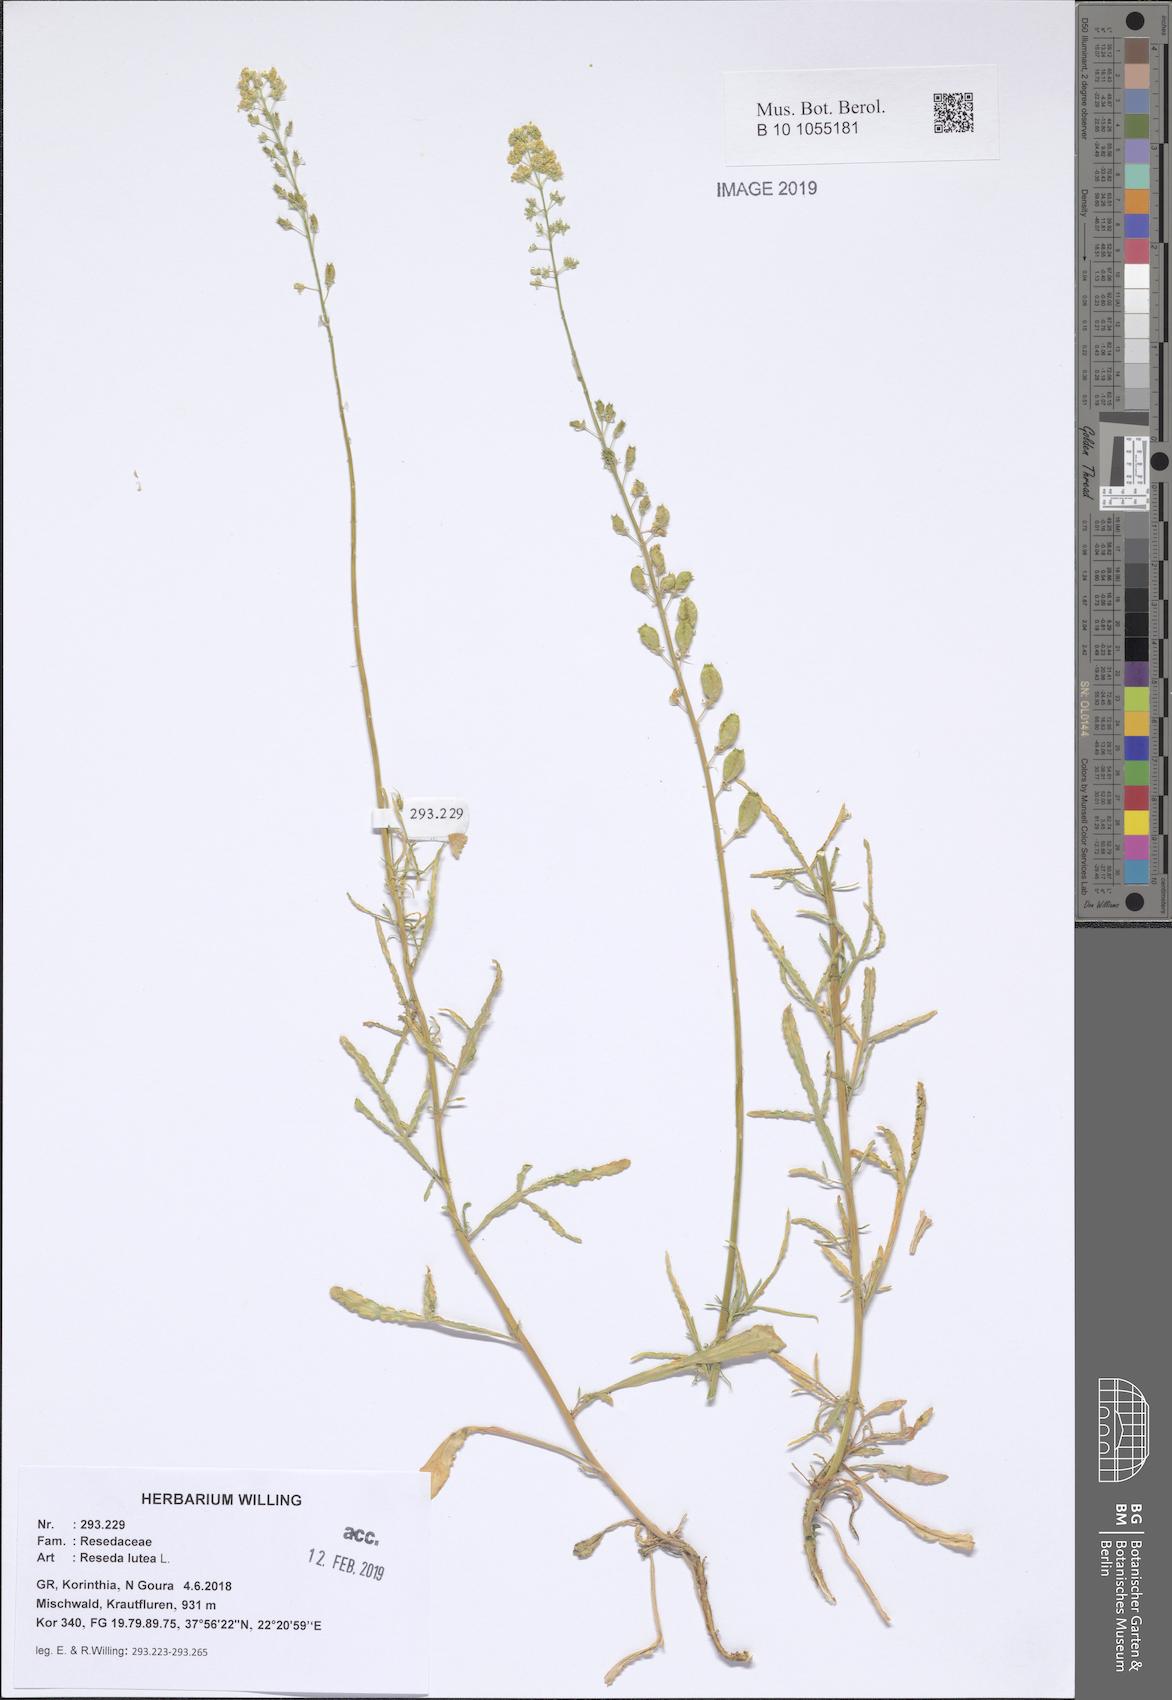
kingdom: Plantae
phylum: Tracheophyta
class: Magnoliopsida
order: Brassicales
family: Resedaceae
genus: Reseda
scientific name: Reseda lutea
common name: Wild mignonette
